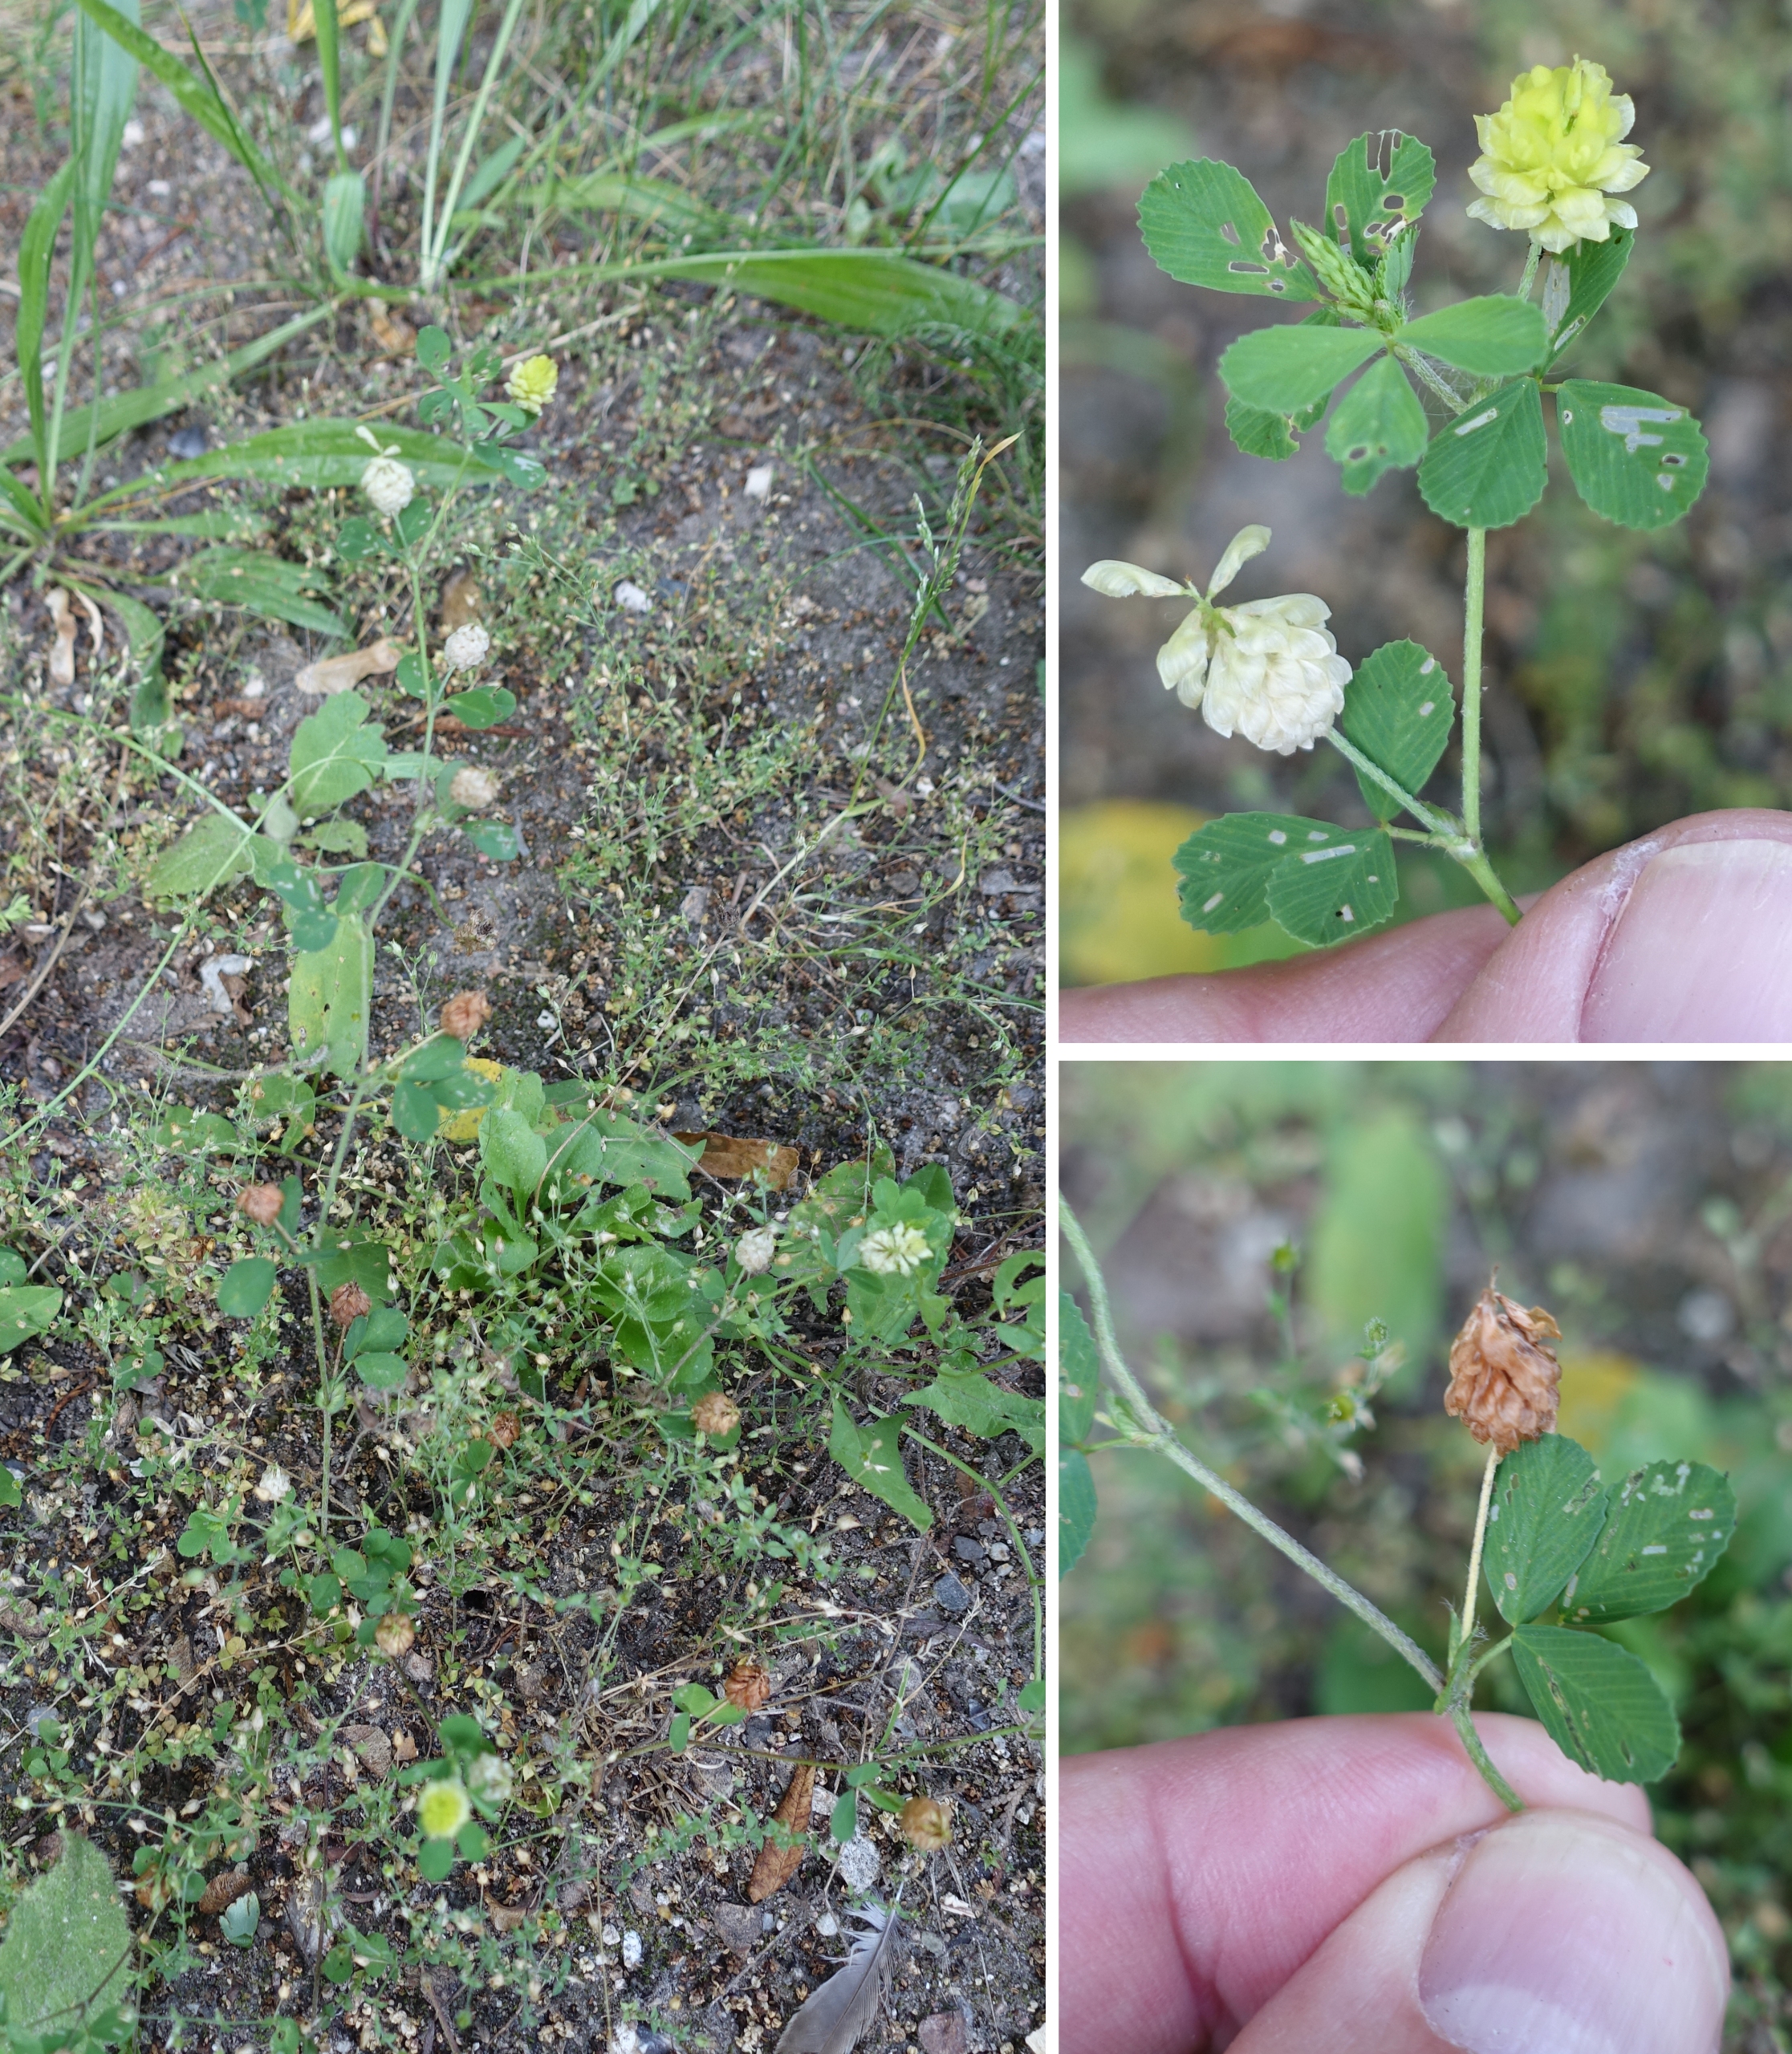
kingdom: Plantae
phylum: Tracheophyta
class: Magnoliopsida
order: Fabales
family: Fabaceae
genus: Trifolium
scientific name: Trifolium campestre
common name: Gul kløver
